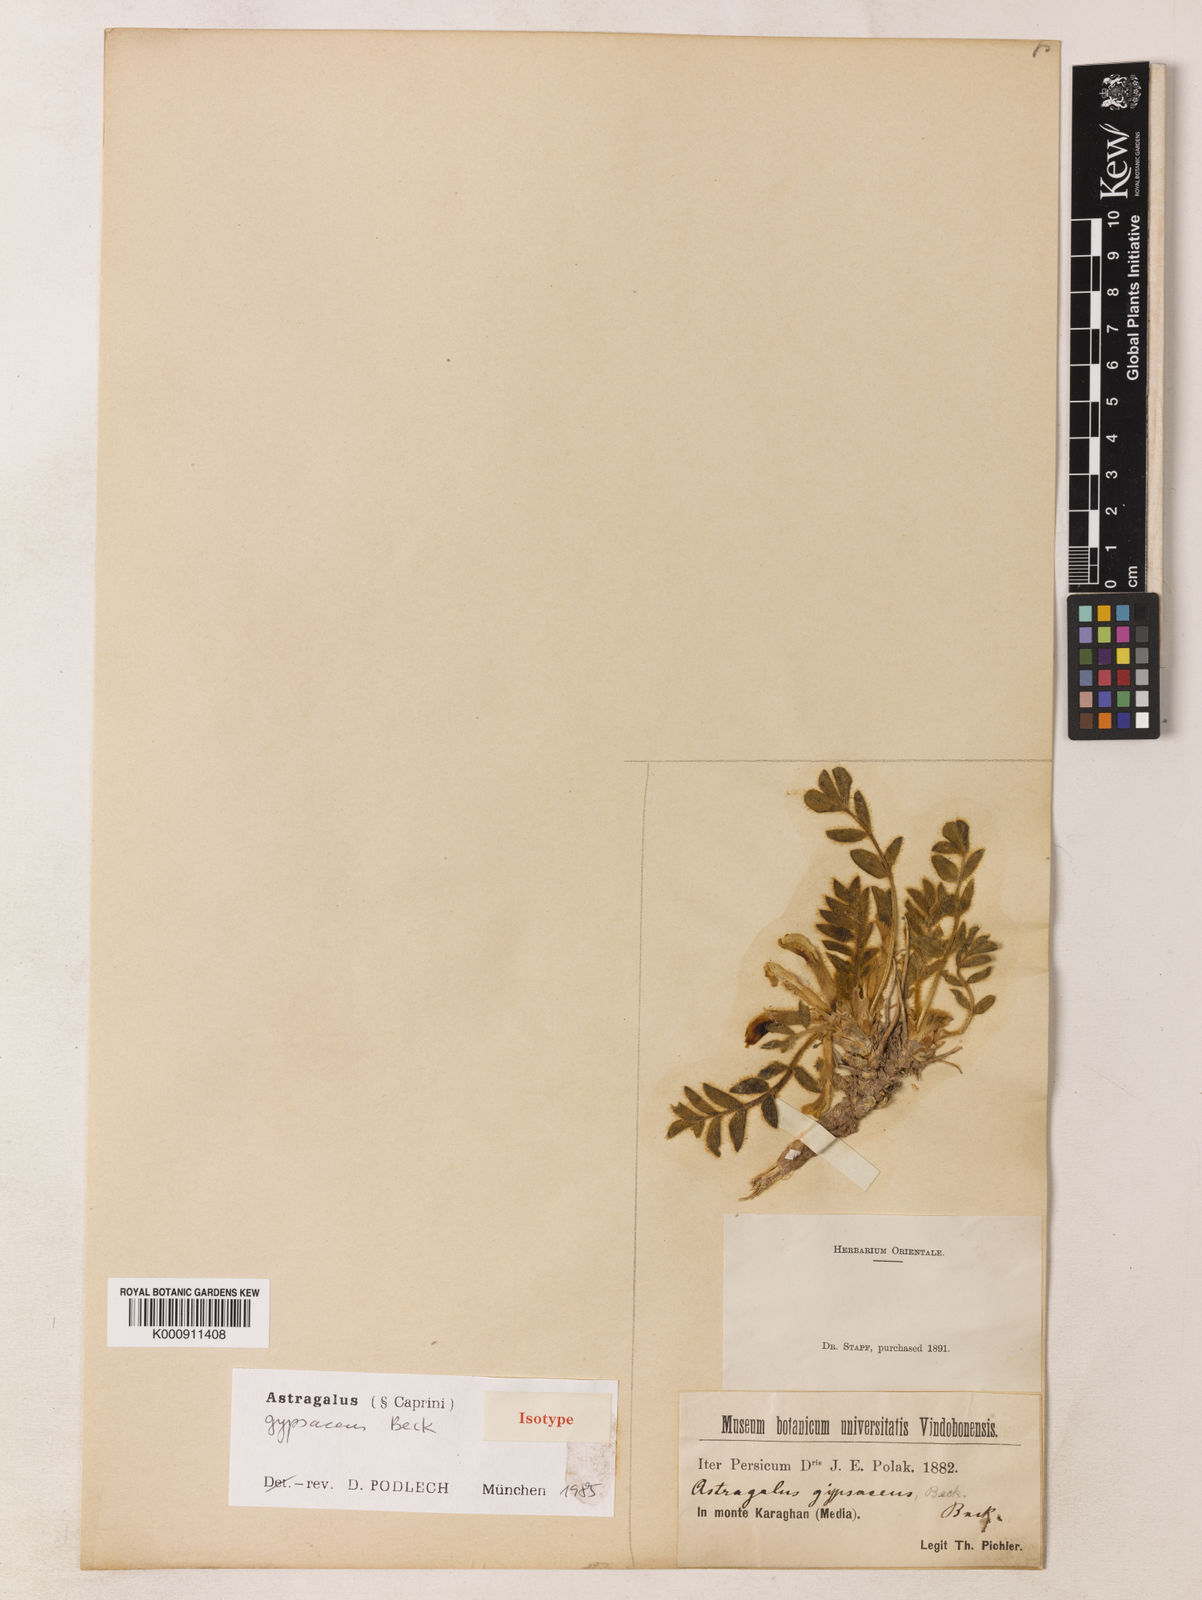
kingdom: Plantae
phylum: Tracheophyta
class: Magnoliopsida
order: Fabales
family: Fabaceae
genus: Astragalus
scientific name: Astragalus gypsaceus
